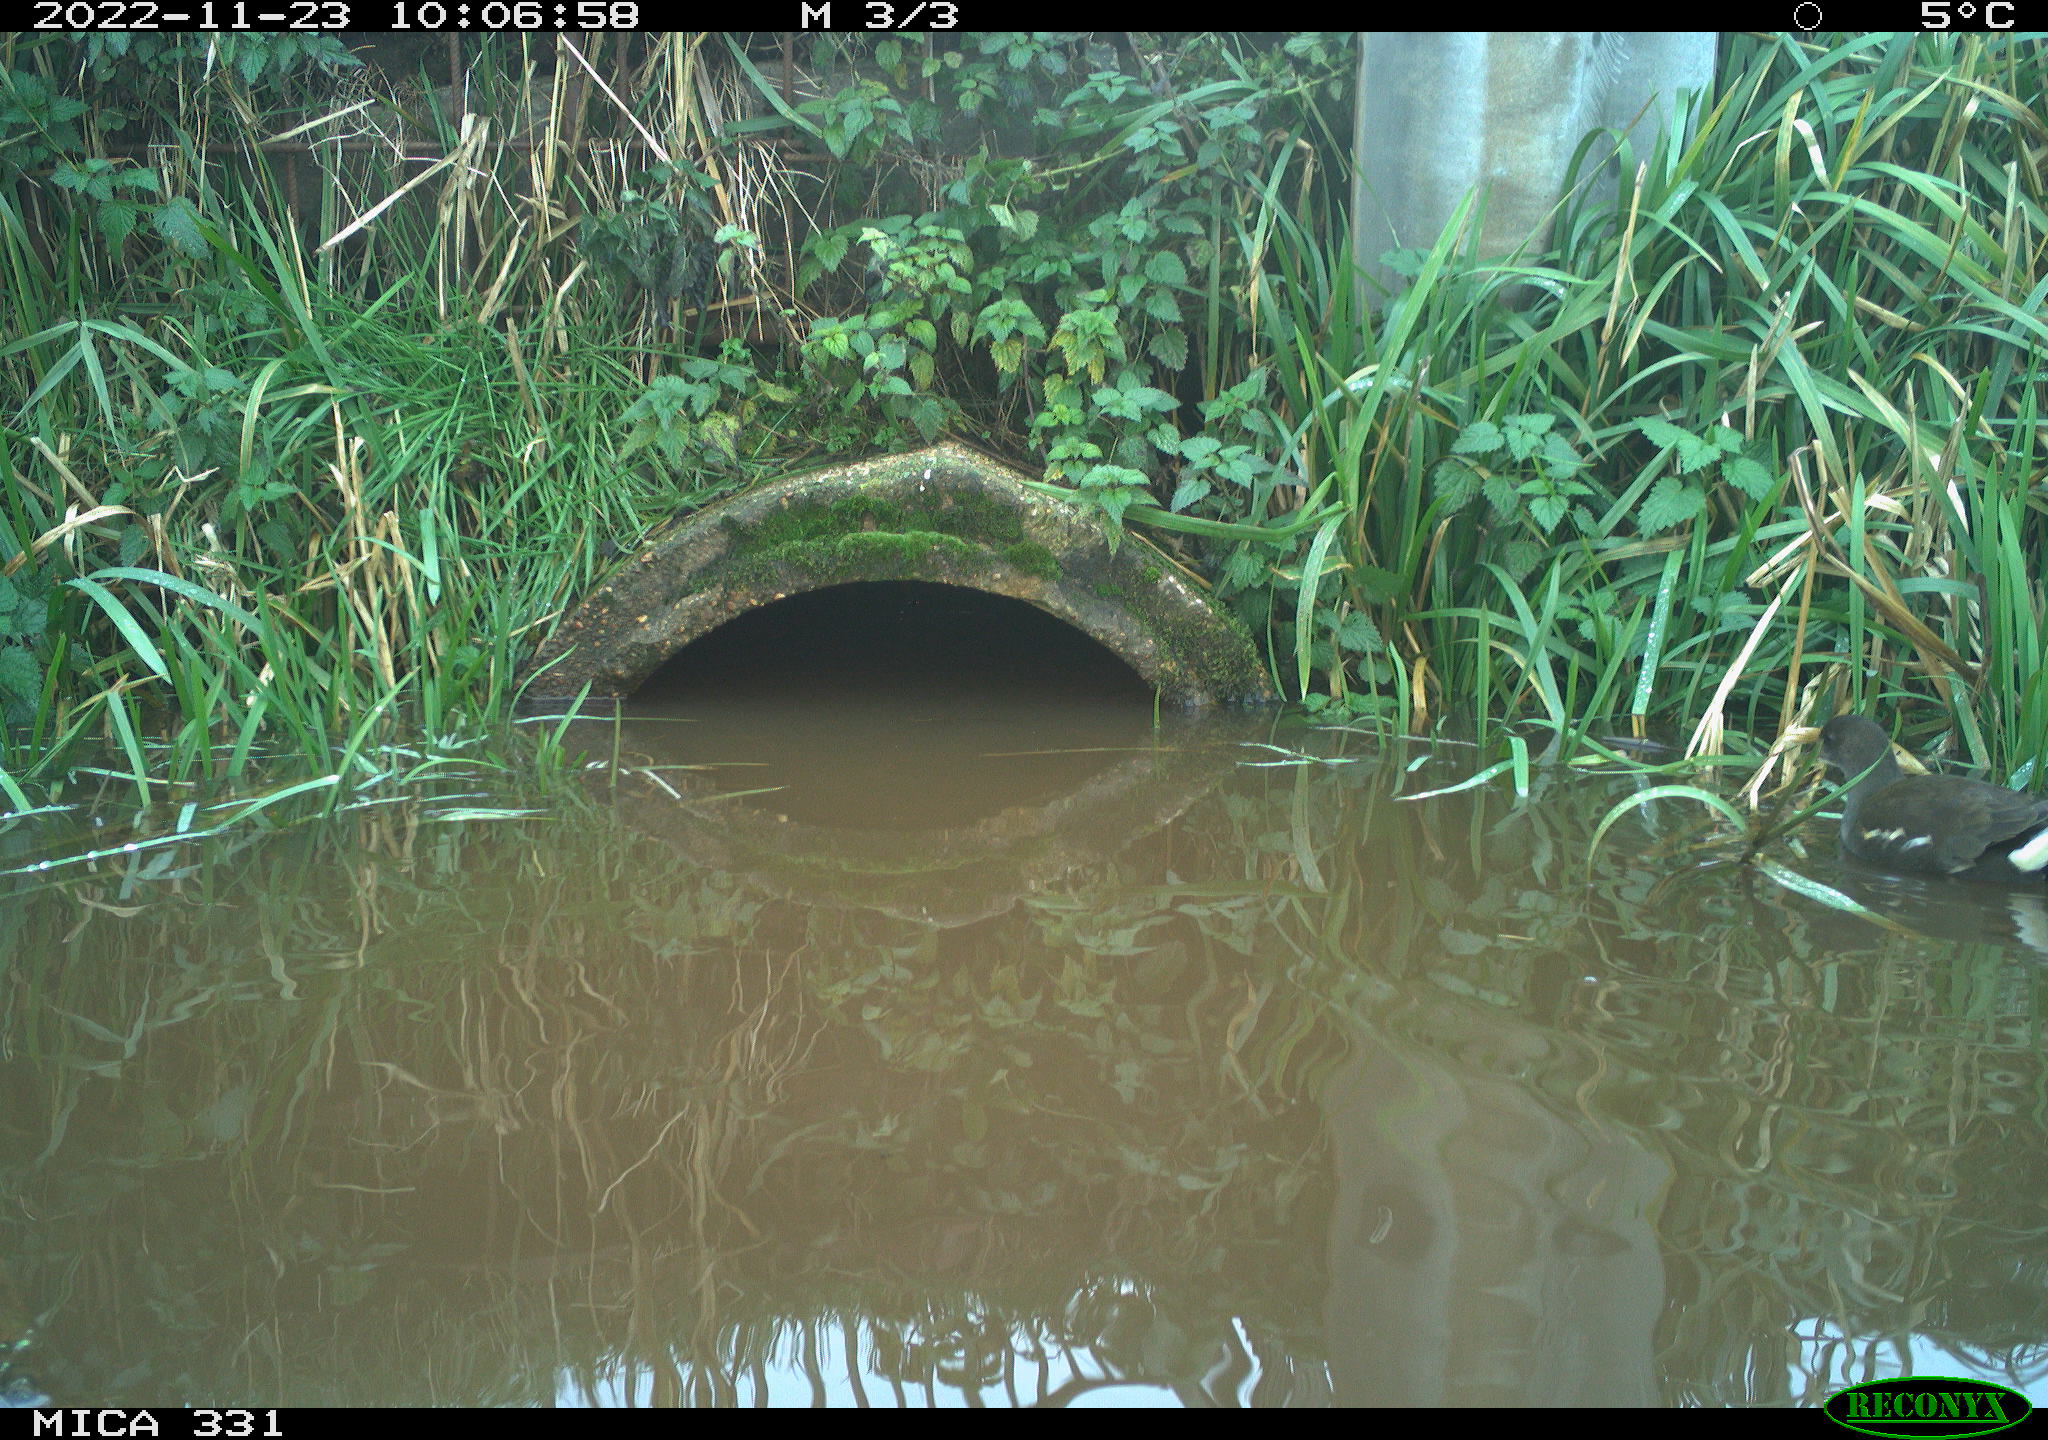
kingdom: Animalia
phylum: Chordata
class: Aves
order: Gruiformes
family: Rallidae
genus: Gallinula
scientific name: Gallinula chloropus
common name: Common moorhen
